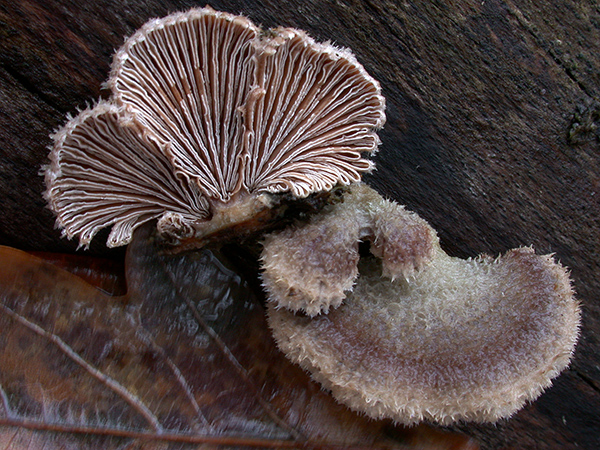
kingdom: Fungi
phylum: Basidiomycota
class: Agaricomycetes
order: Agaricales
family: Schizophyllaceae
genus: Schizophyllum
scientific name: Schizophyllum commune
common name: kløvblad
